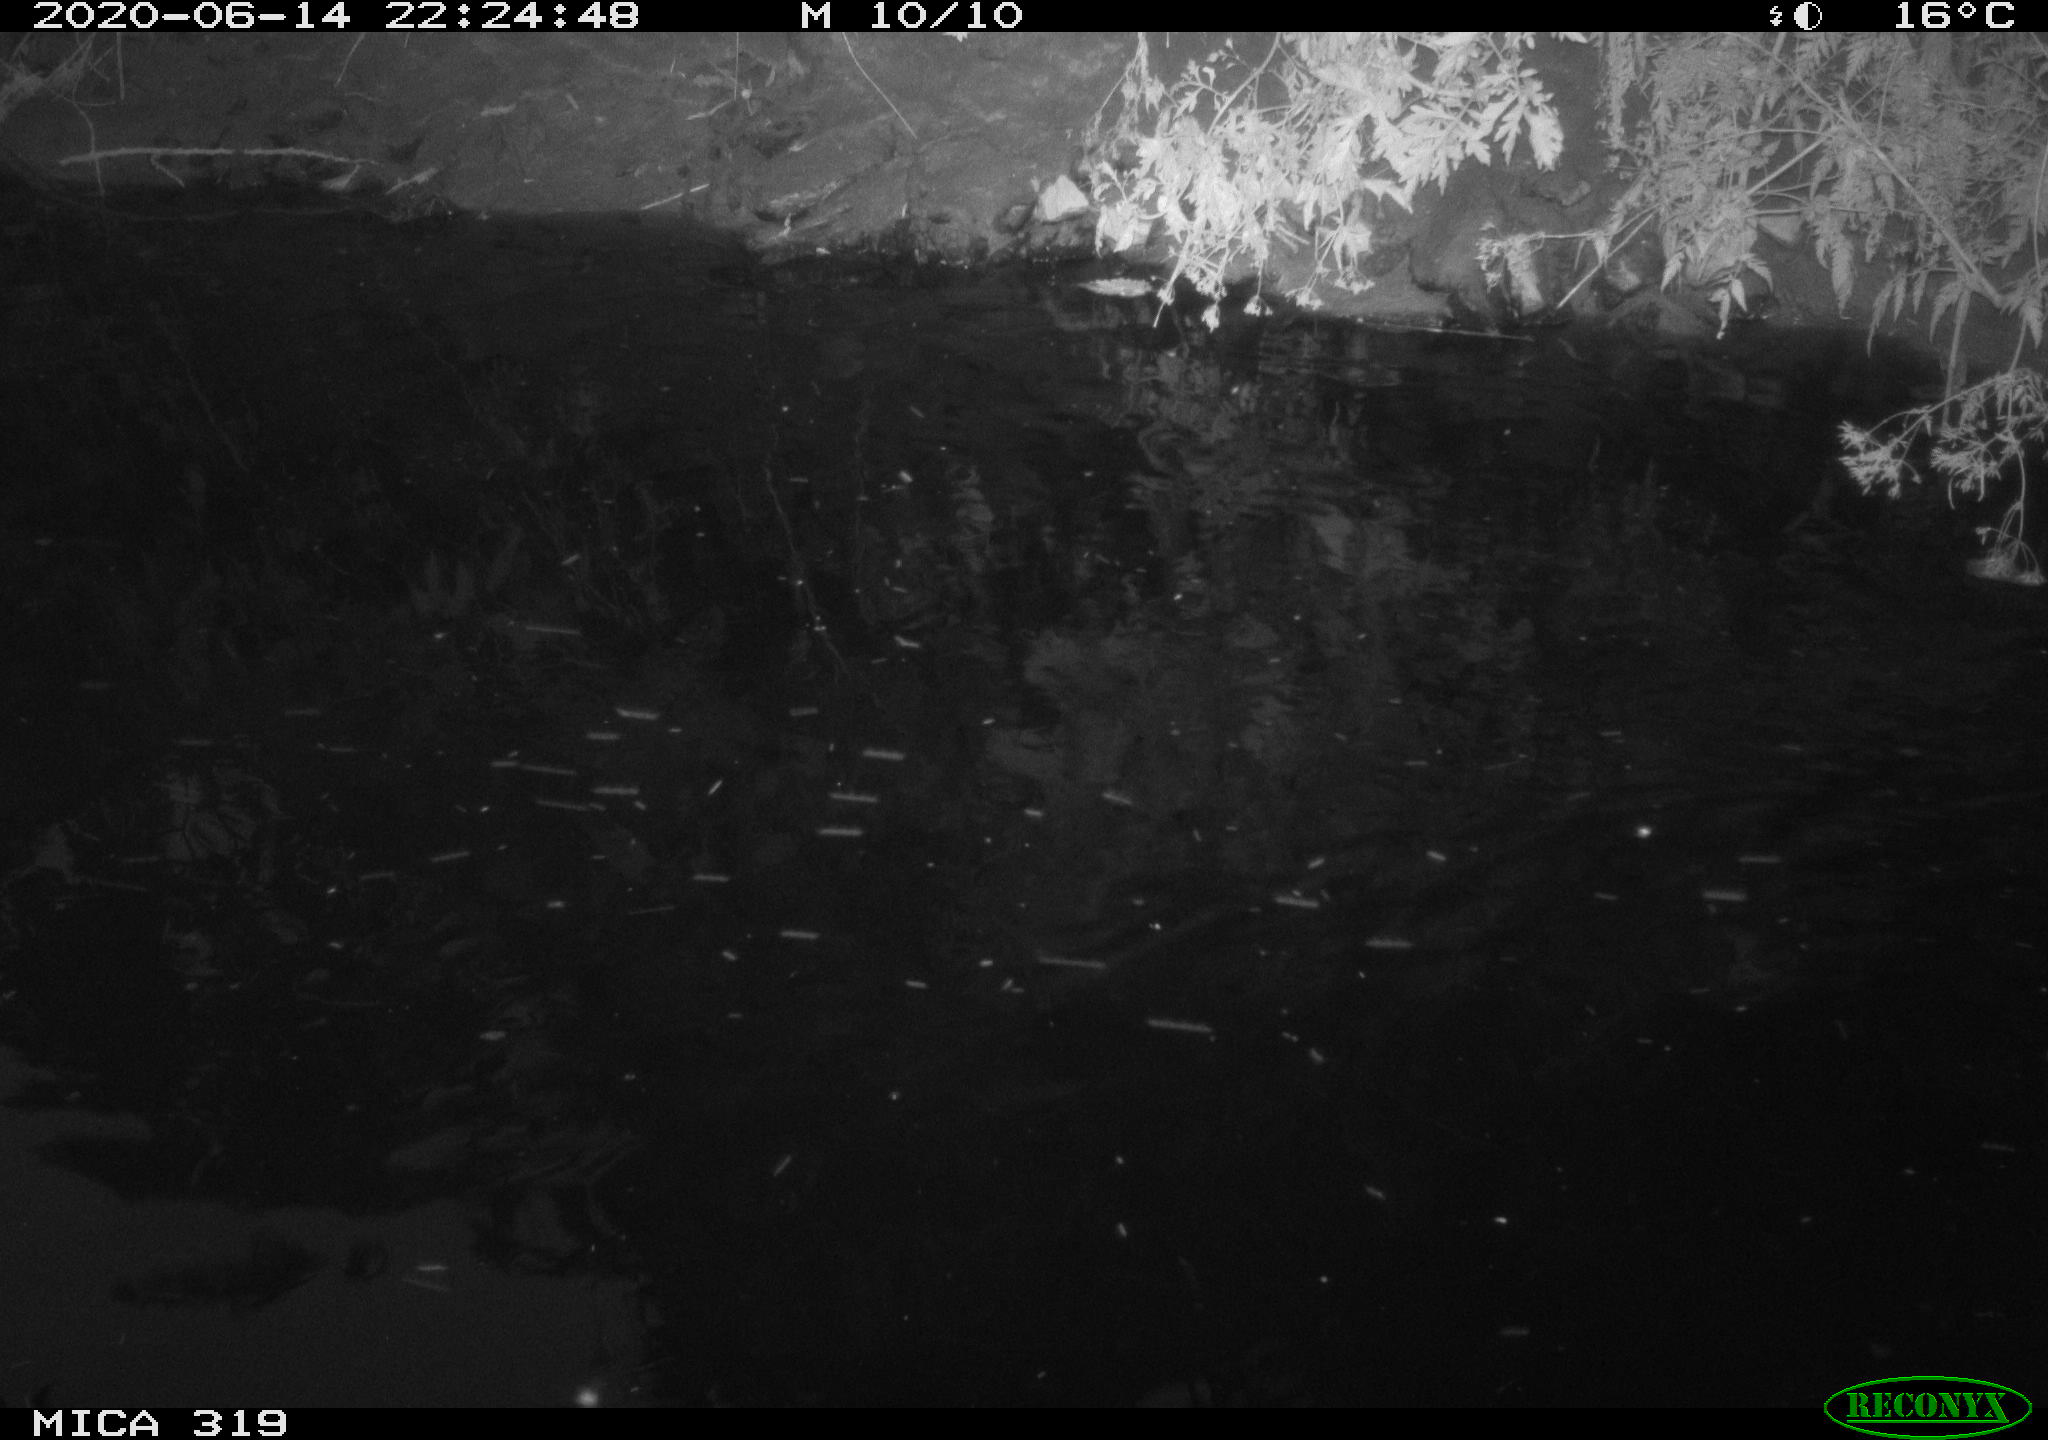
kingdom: Animalia
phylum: Chordata
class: Aves
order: Anseriformes
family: Anatidae
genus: Anas
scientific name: Anas platyrhynchos
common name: Mallard
